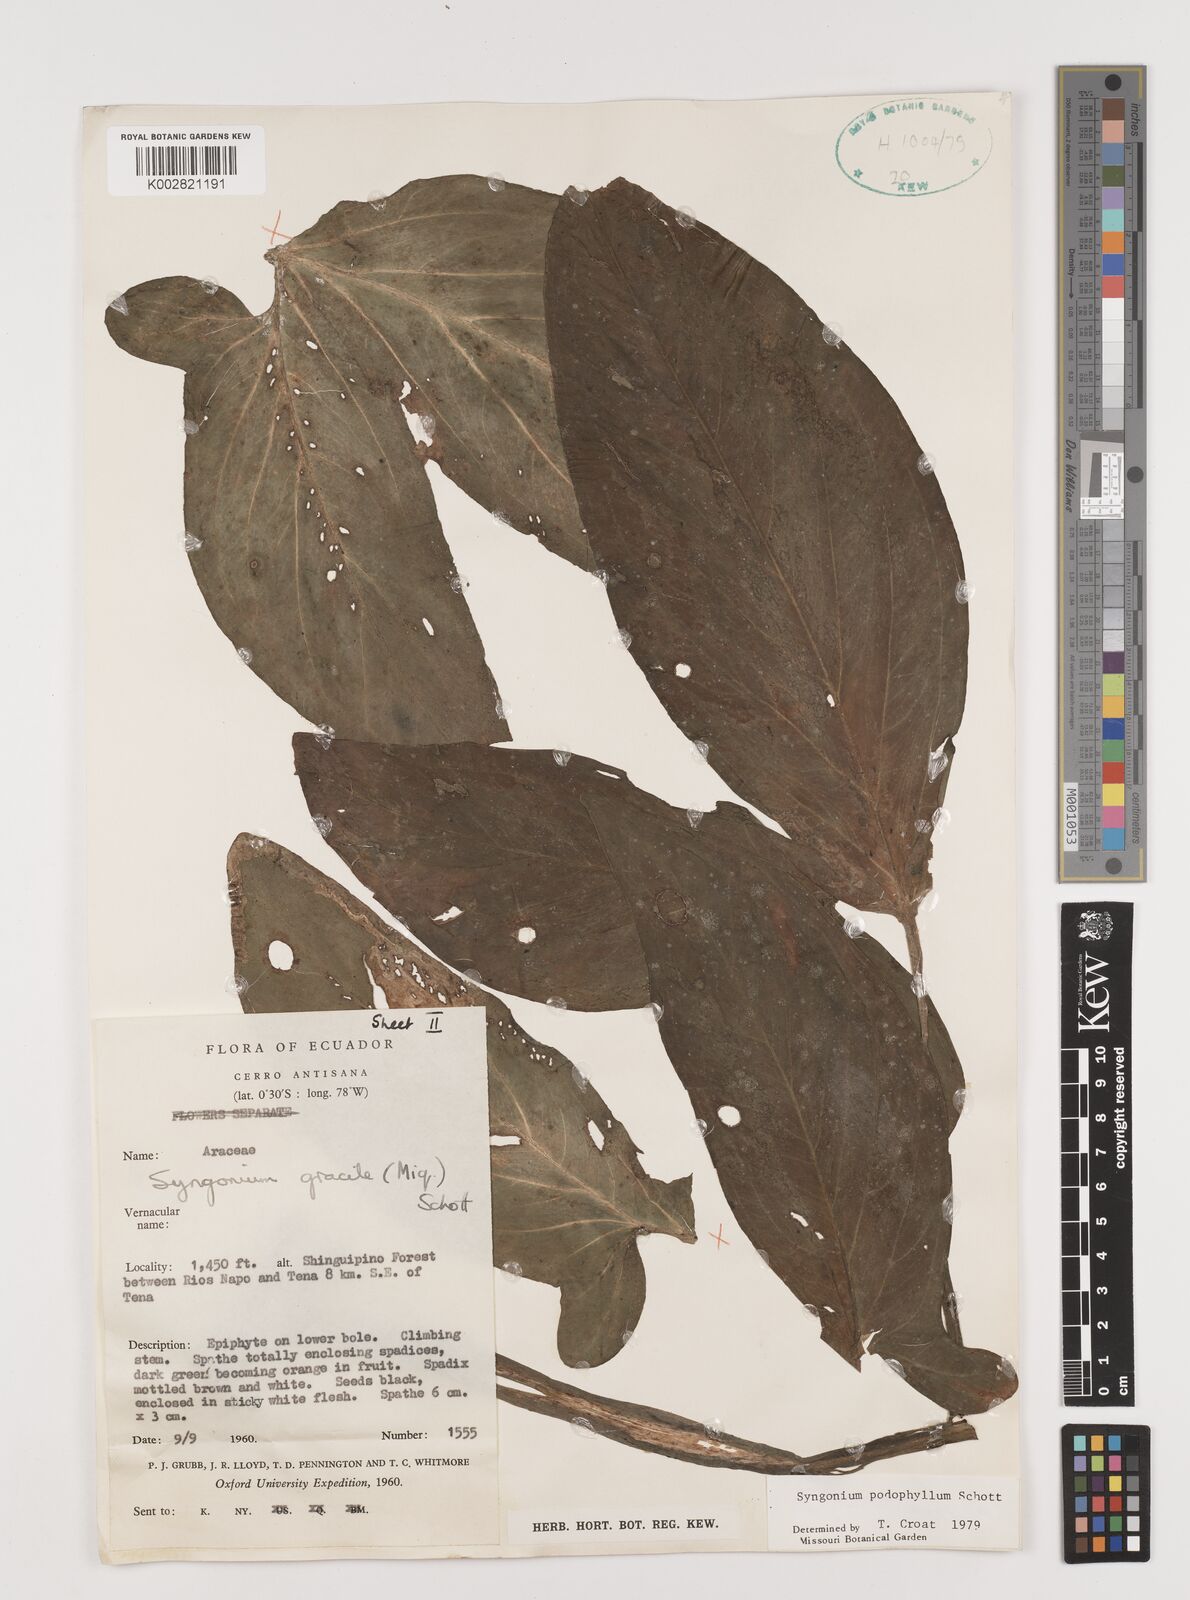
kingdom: Plantae
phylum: Tracheophyta
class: Liliopsida
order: Alismatales
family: Araceae
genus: Syngonium
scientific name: Syngonium podophyllum
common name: American evergreen
